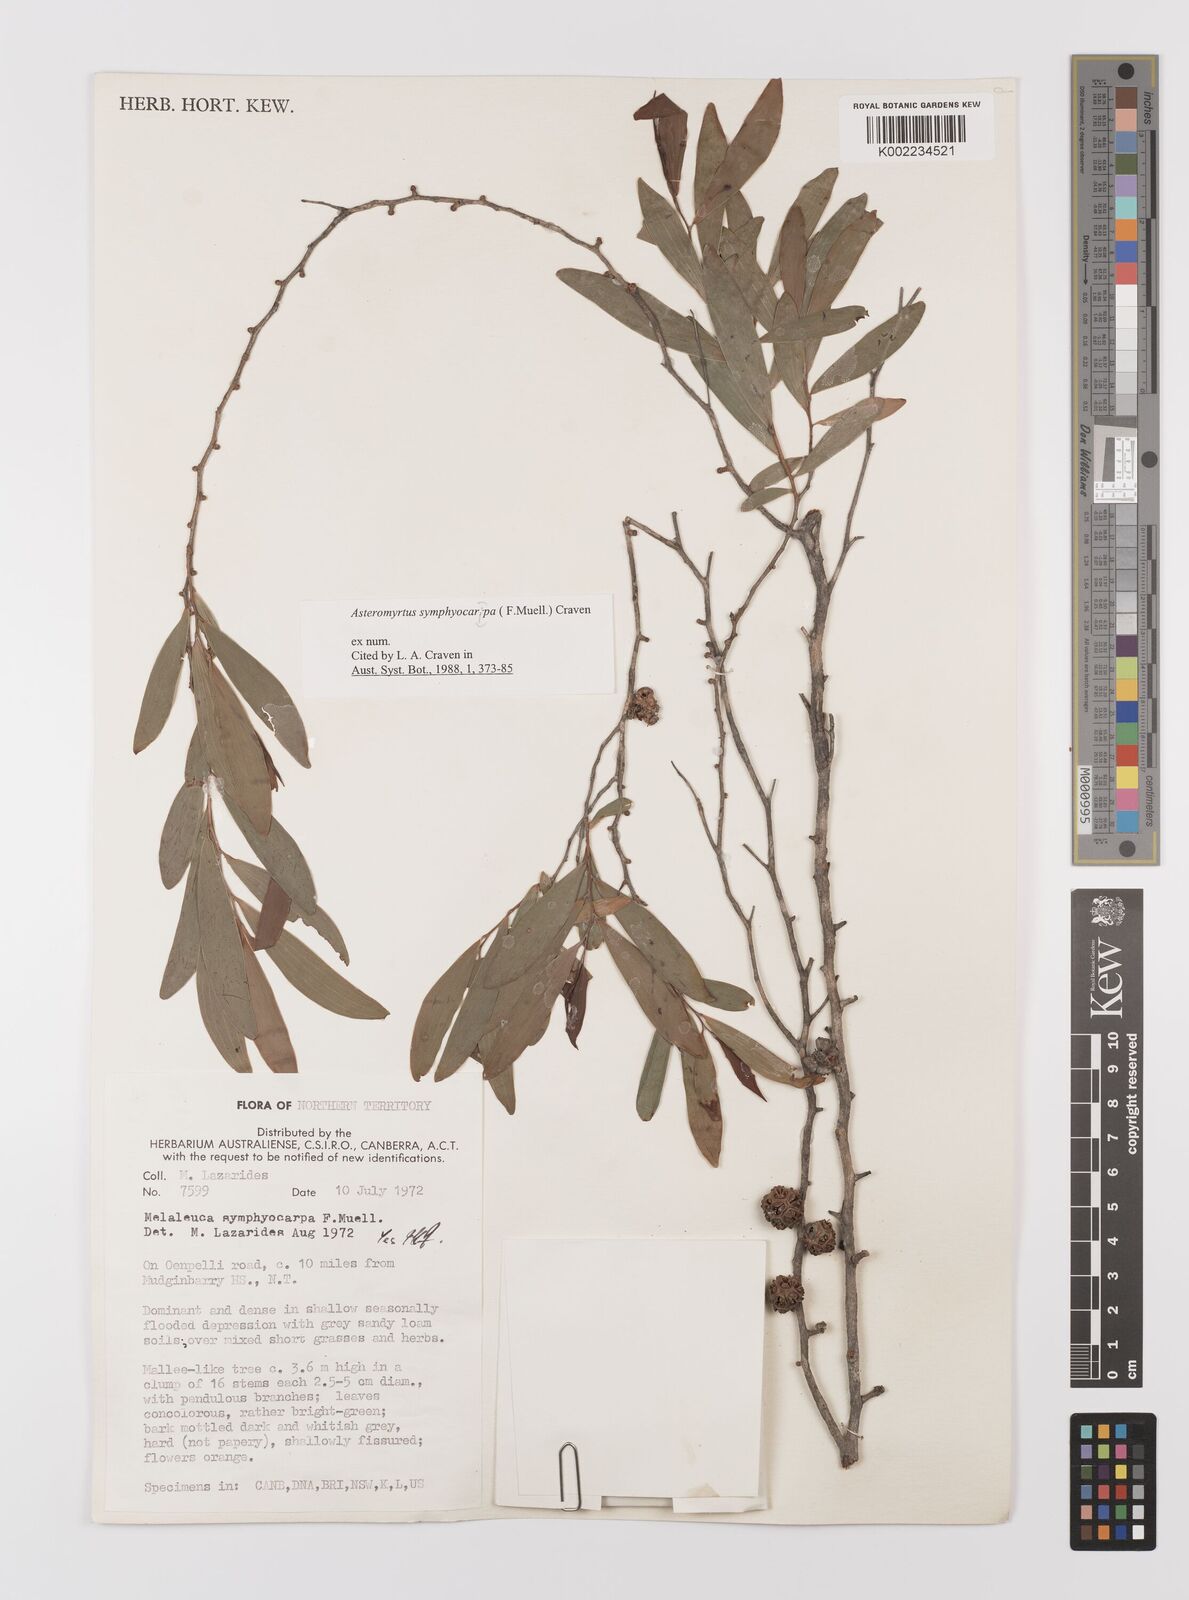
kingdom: Plantae
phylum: Tracheophyta
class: Magnoliopsida
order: Myrtales
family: Myrtaceae
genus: Asteromyrtus
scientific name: Asteromyrtus symphyocarpa
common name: Liniment-tree
